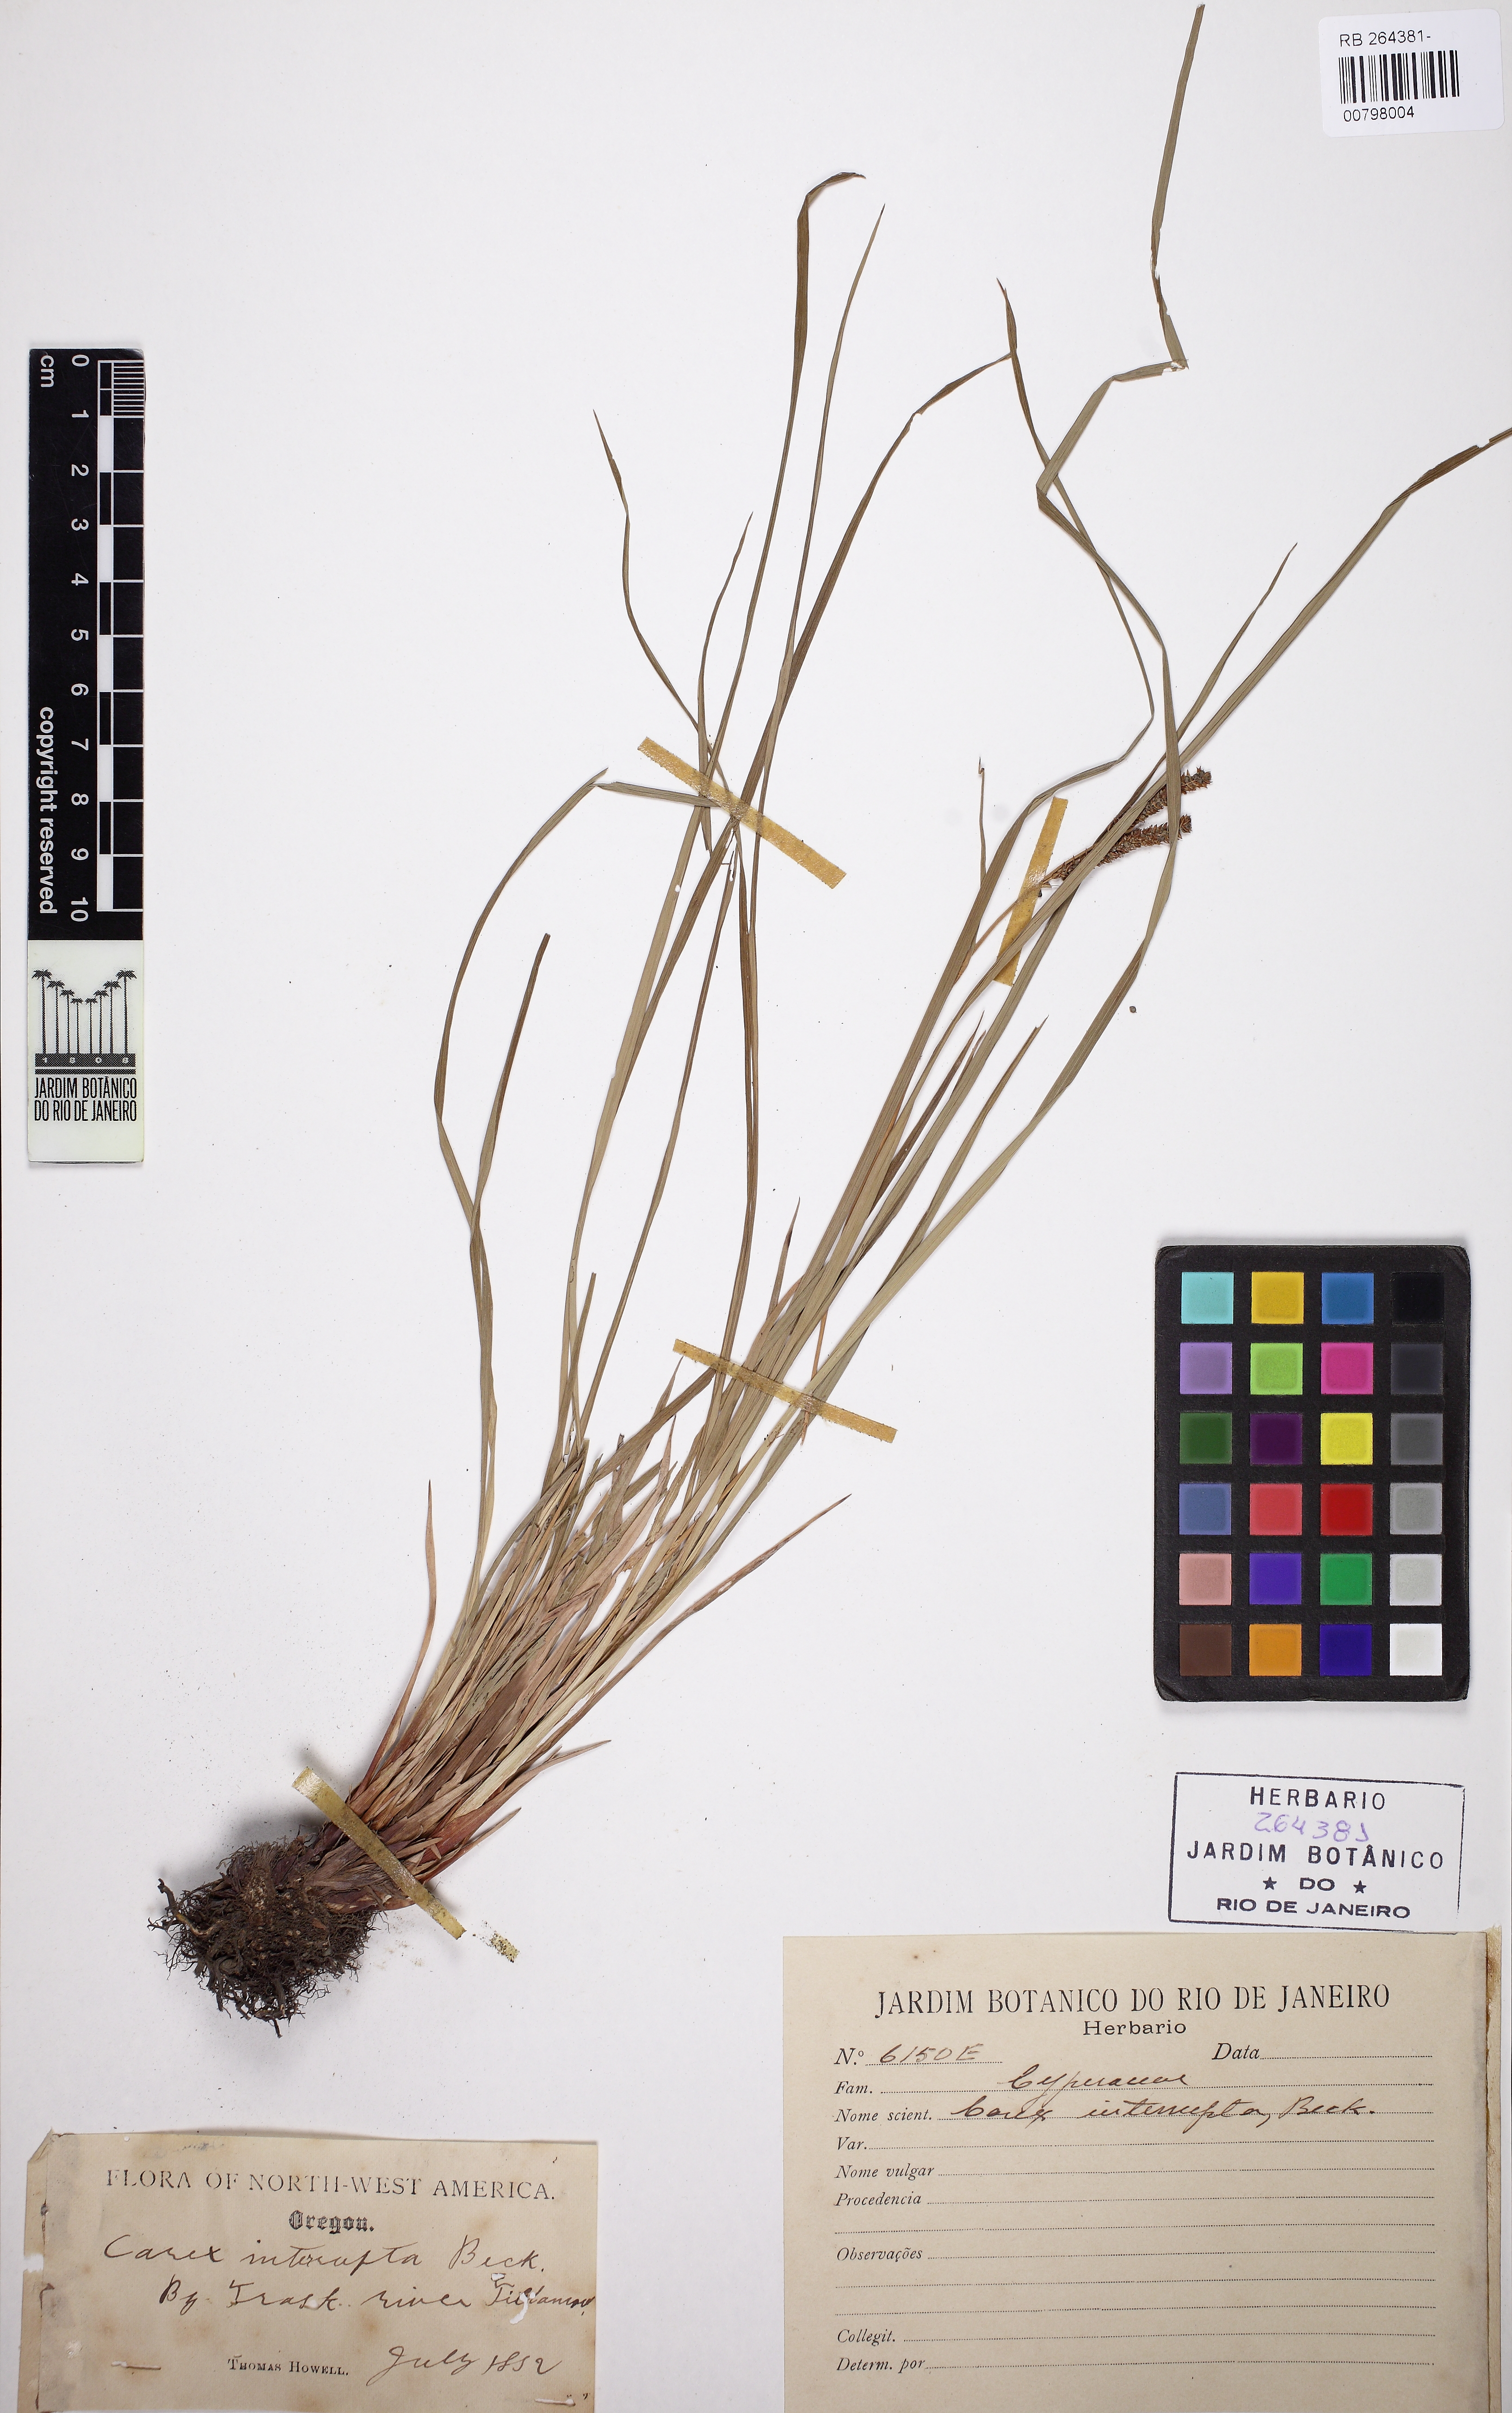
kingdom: Plantae
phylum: Tracheophyta
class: Liliopsida
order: Poales
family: Cyperaceae
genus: Carex
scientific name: Carex interrupta
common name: Green-fruited sedge
